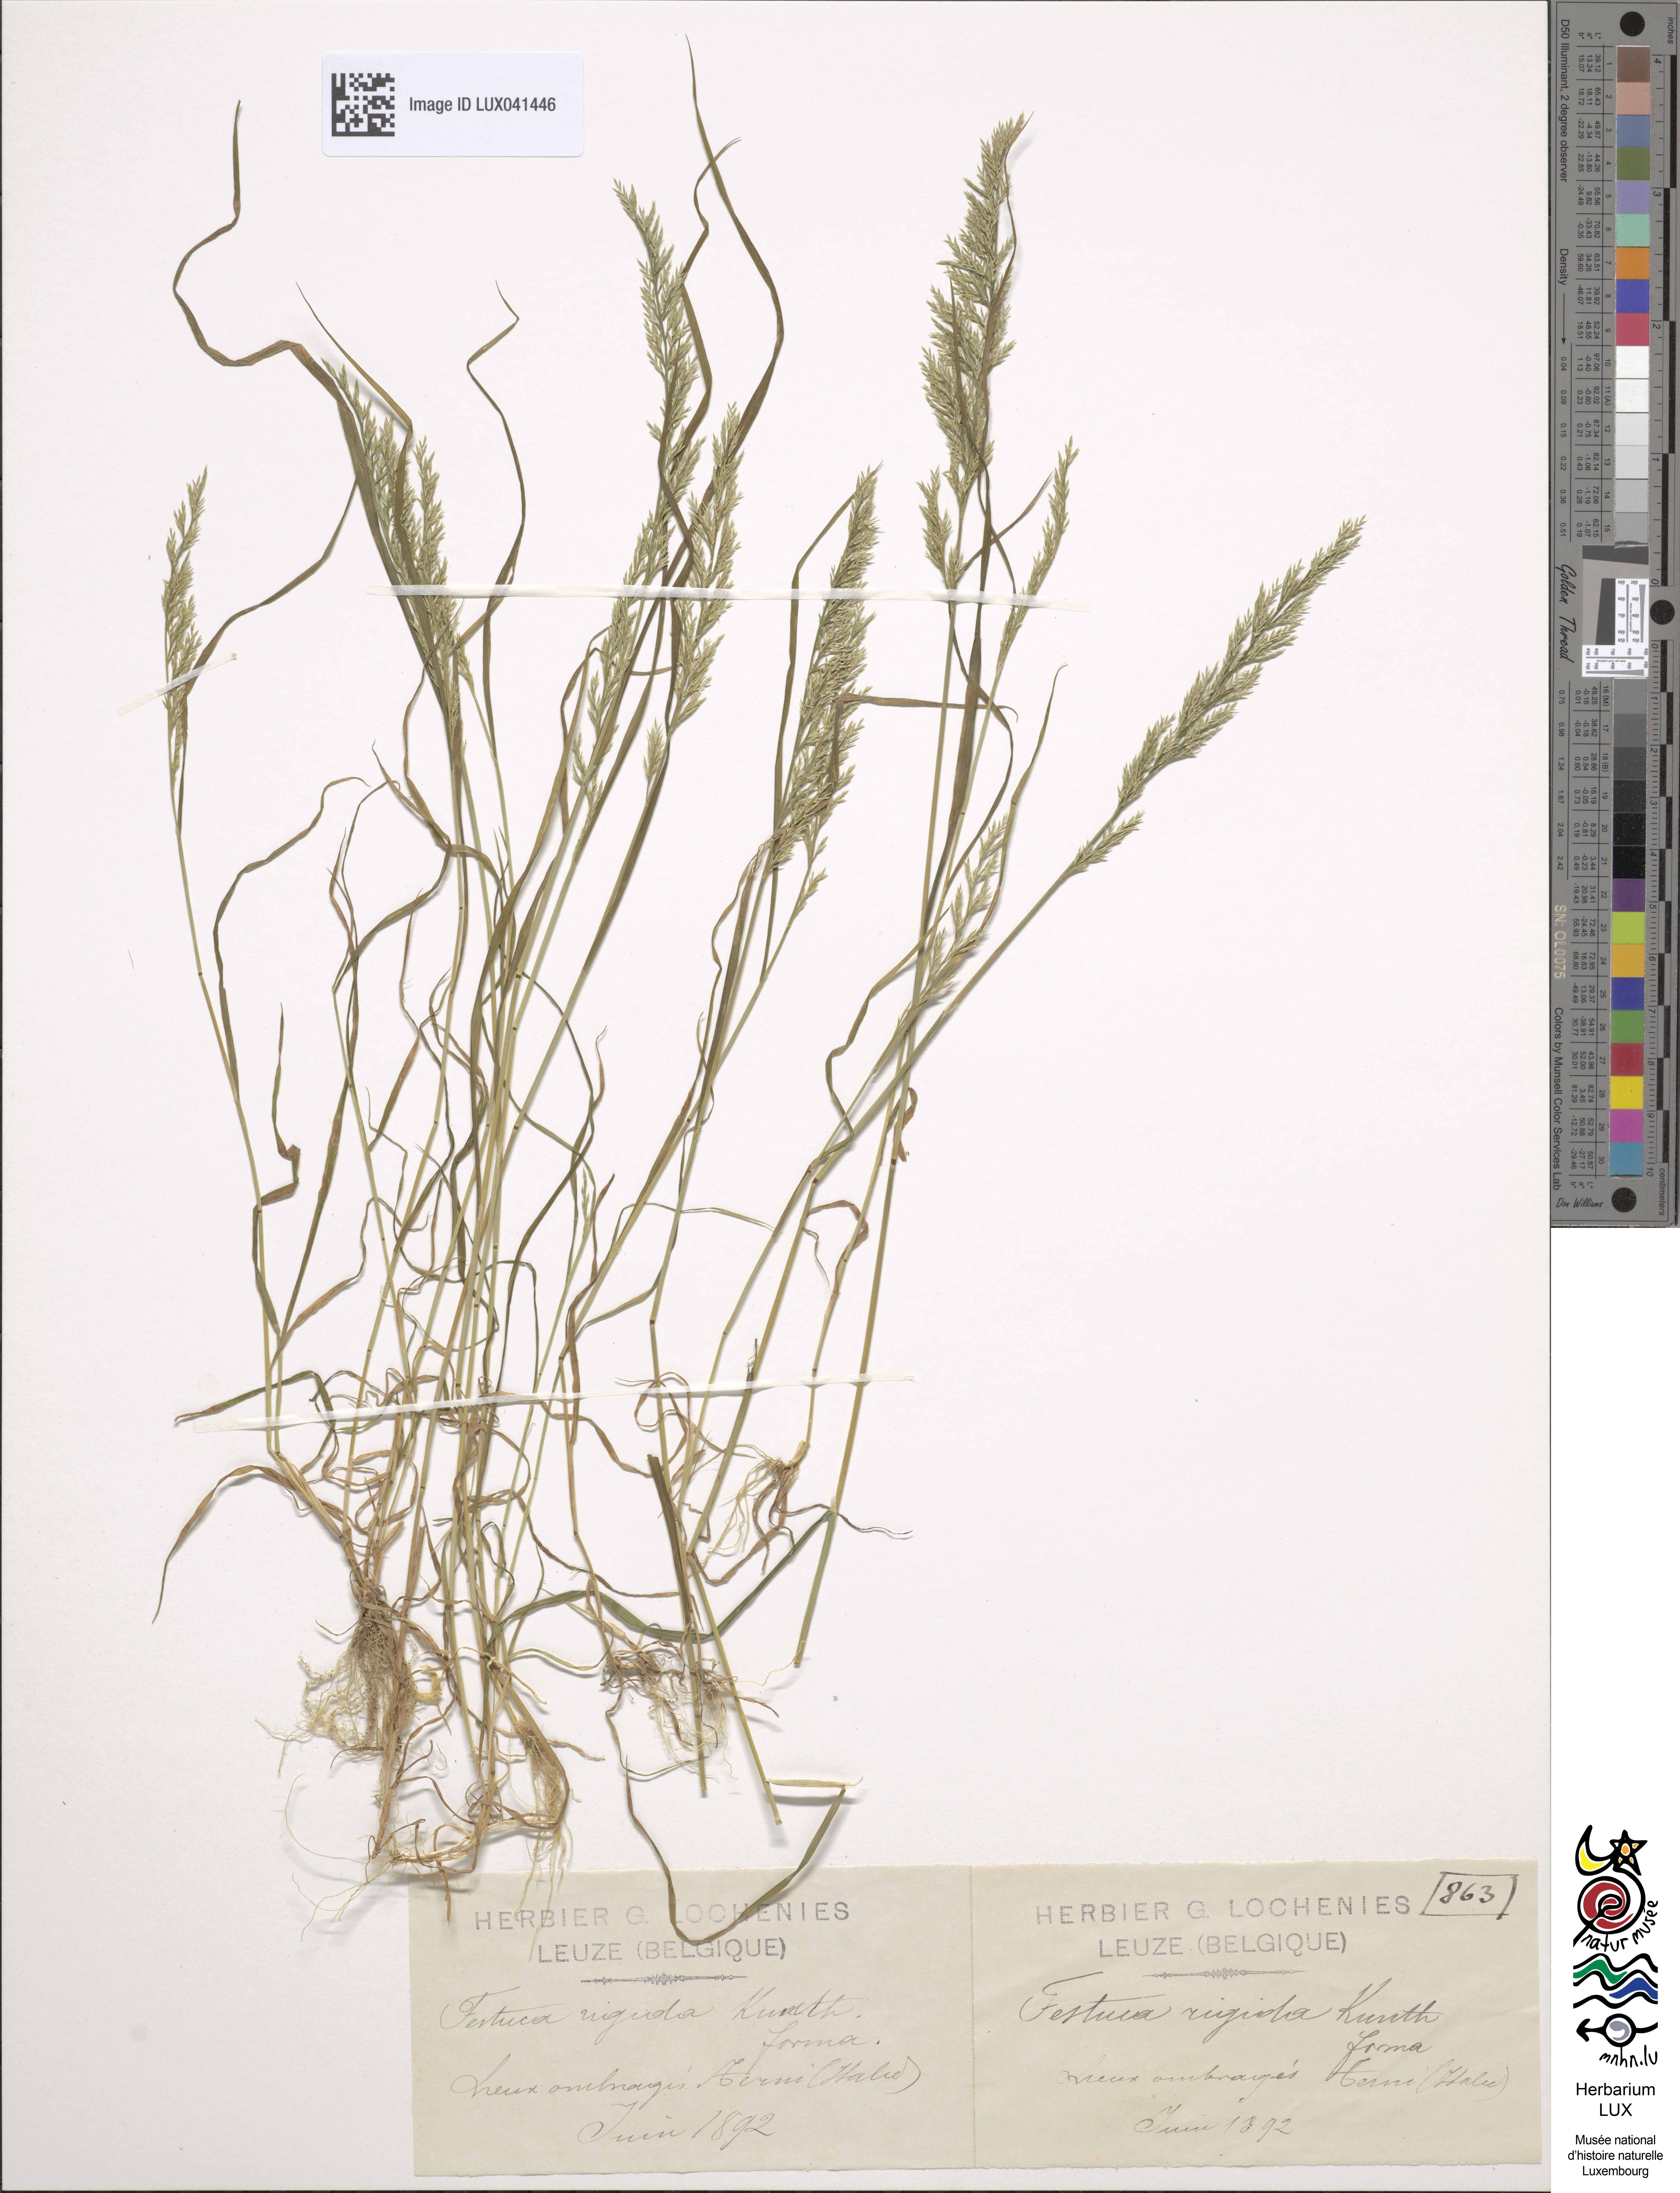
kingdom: Plantae
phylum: Tracheophyta
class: Liliopsida
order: Poales
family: Poaceae
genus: Catapodium
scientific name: Catapodium rigidum
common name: Fern-grass
